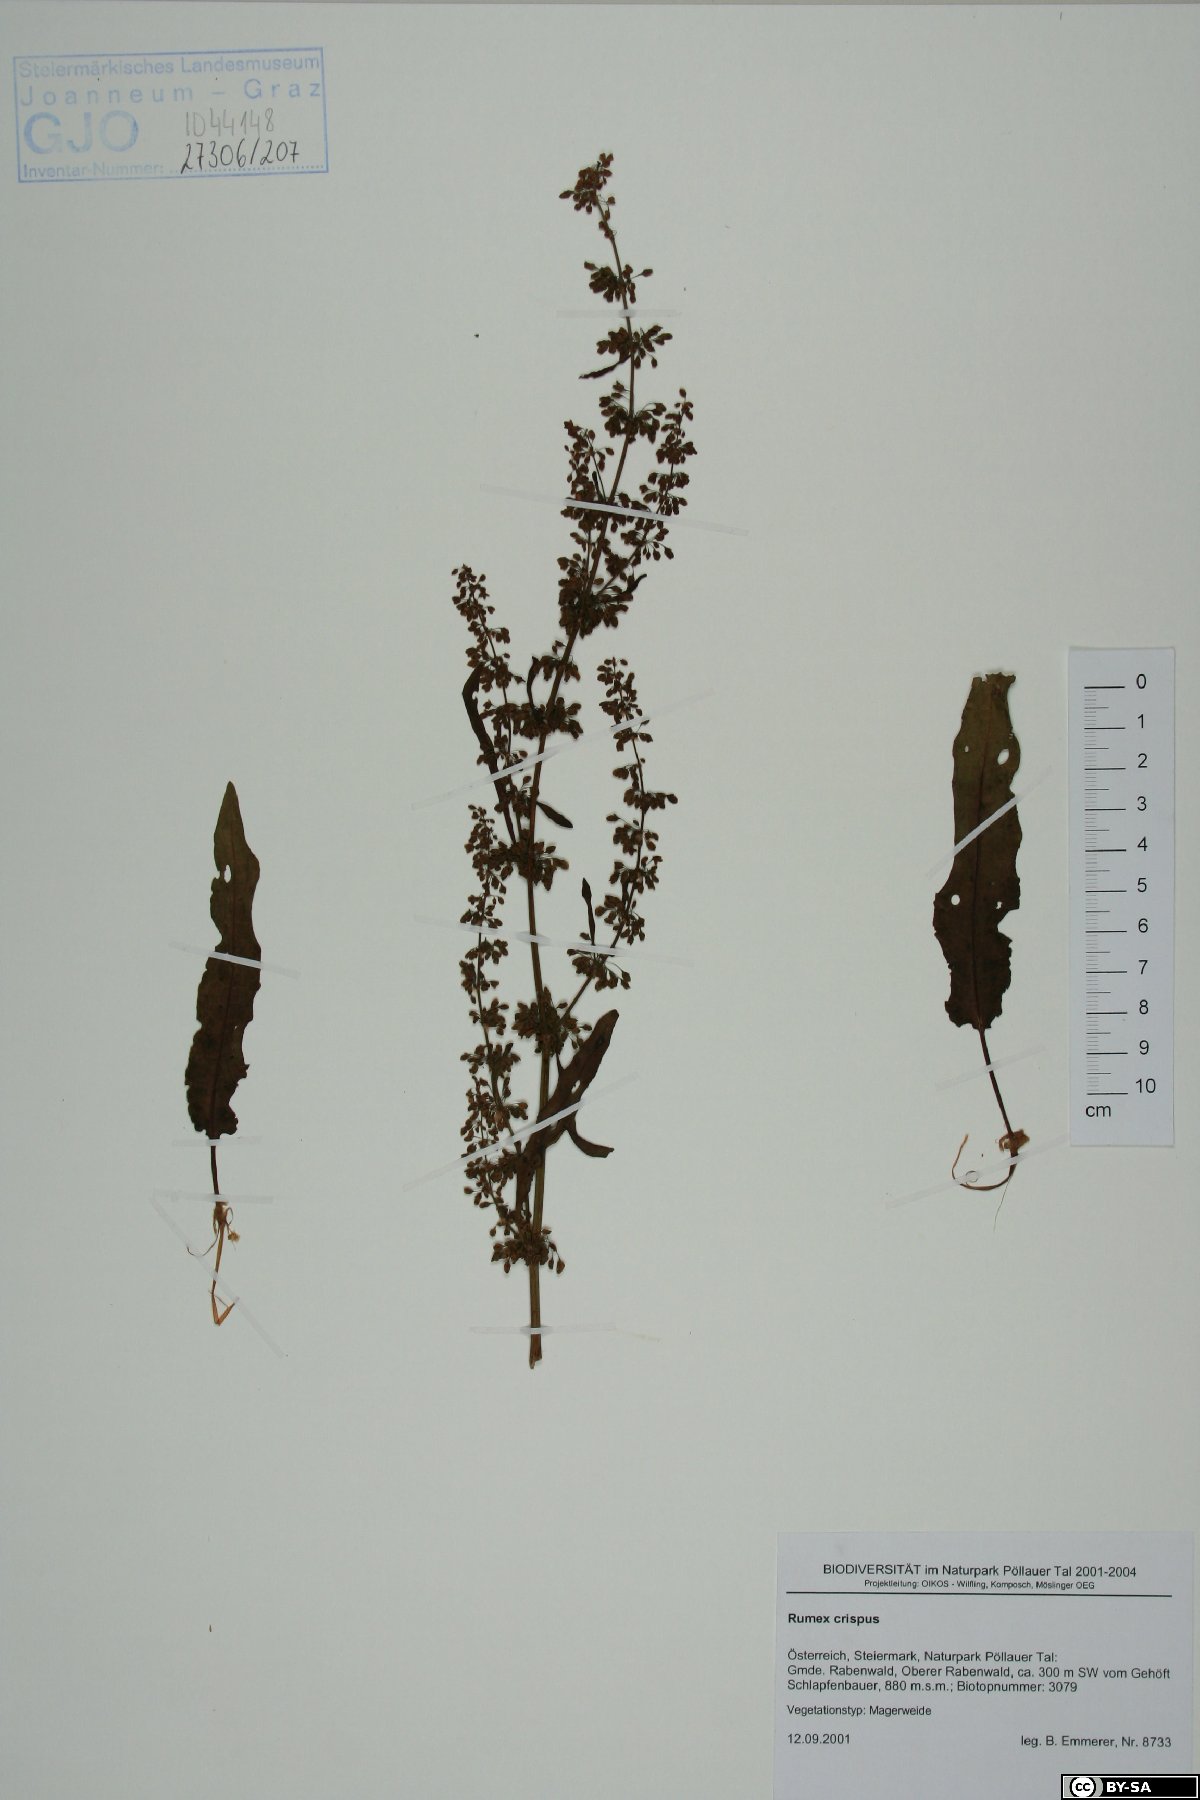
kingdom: Plantae
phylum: Tracheophyta
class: Magnoliopsida
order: Caryophyllales
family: Polygonaceae
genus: Rumex
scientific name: Rumex crispus
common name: Curled dock
